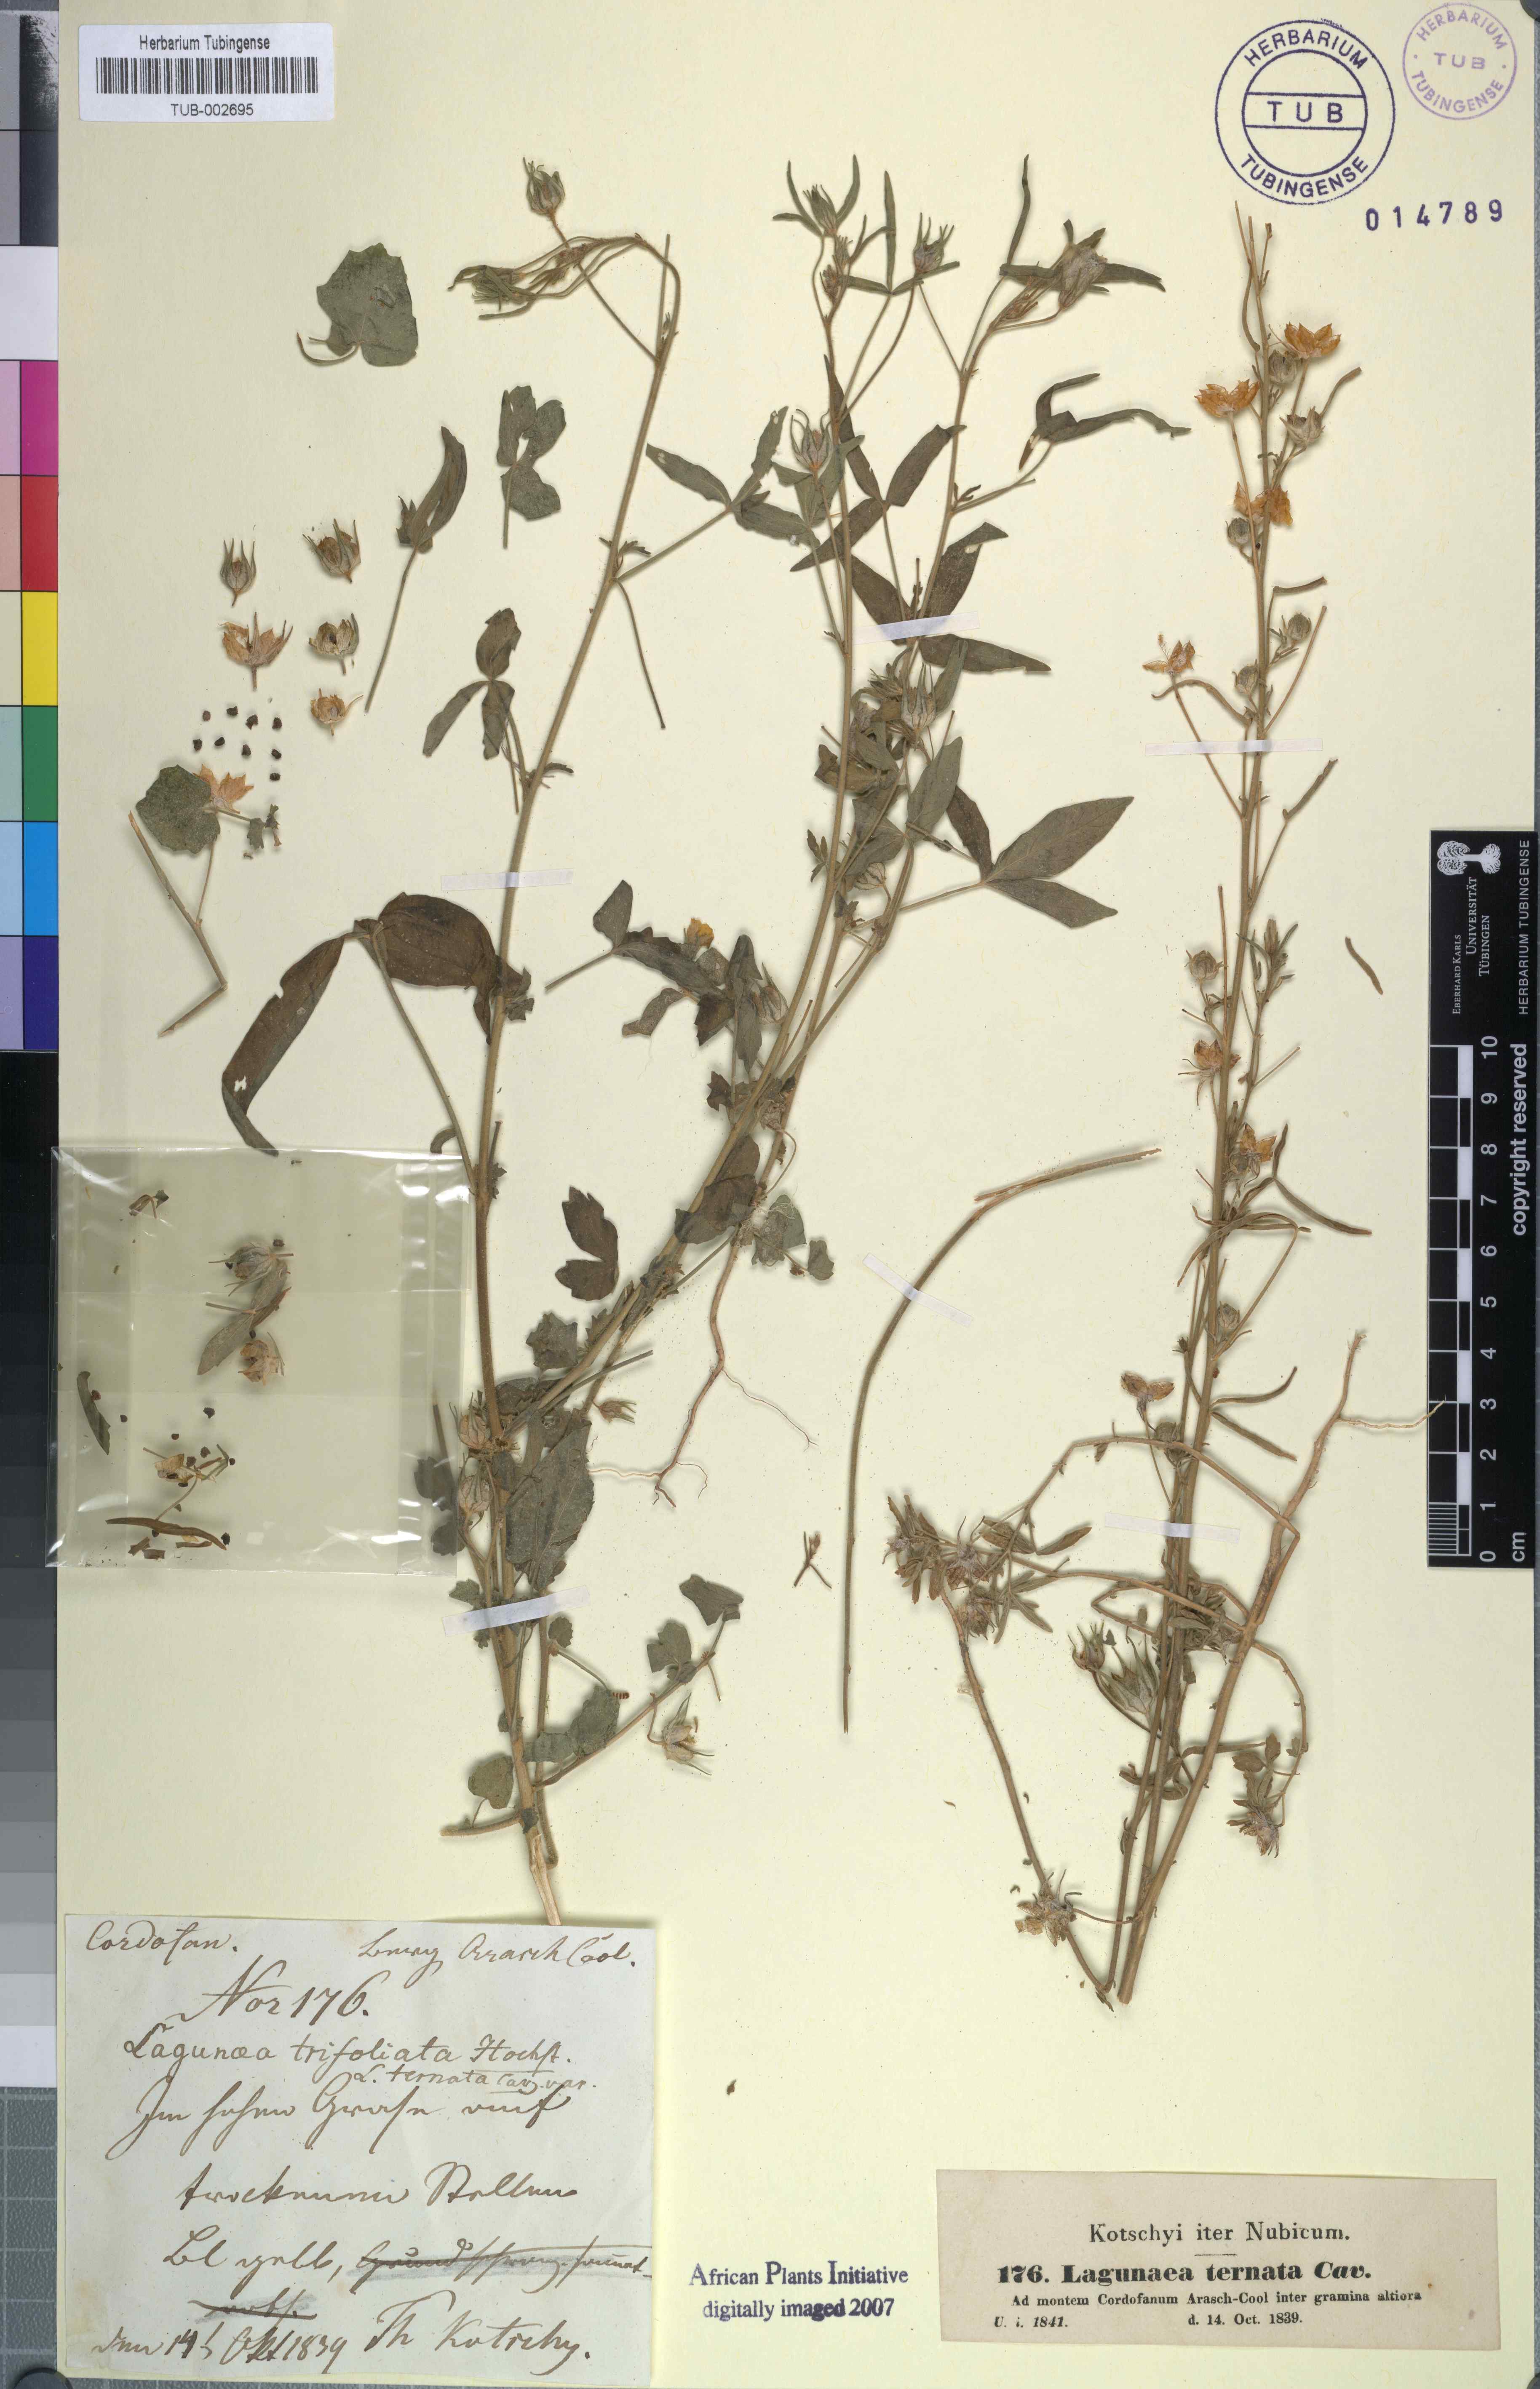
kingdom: Plantae
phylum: Tracheophyta
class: Magnoliopsida
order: Malvales
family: Malvaceae
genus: Hibiscus
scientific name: Hibiscus trionum
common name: Bladder ketmia
